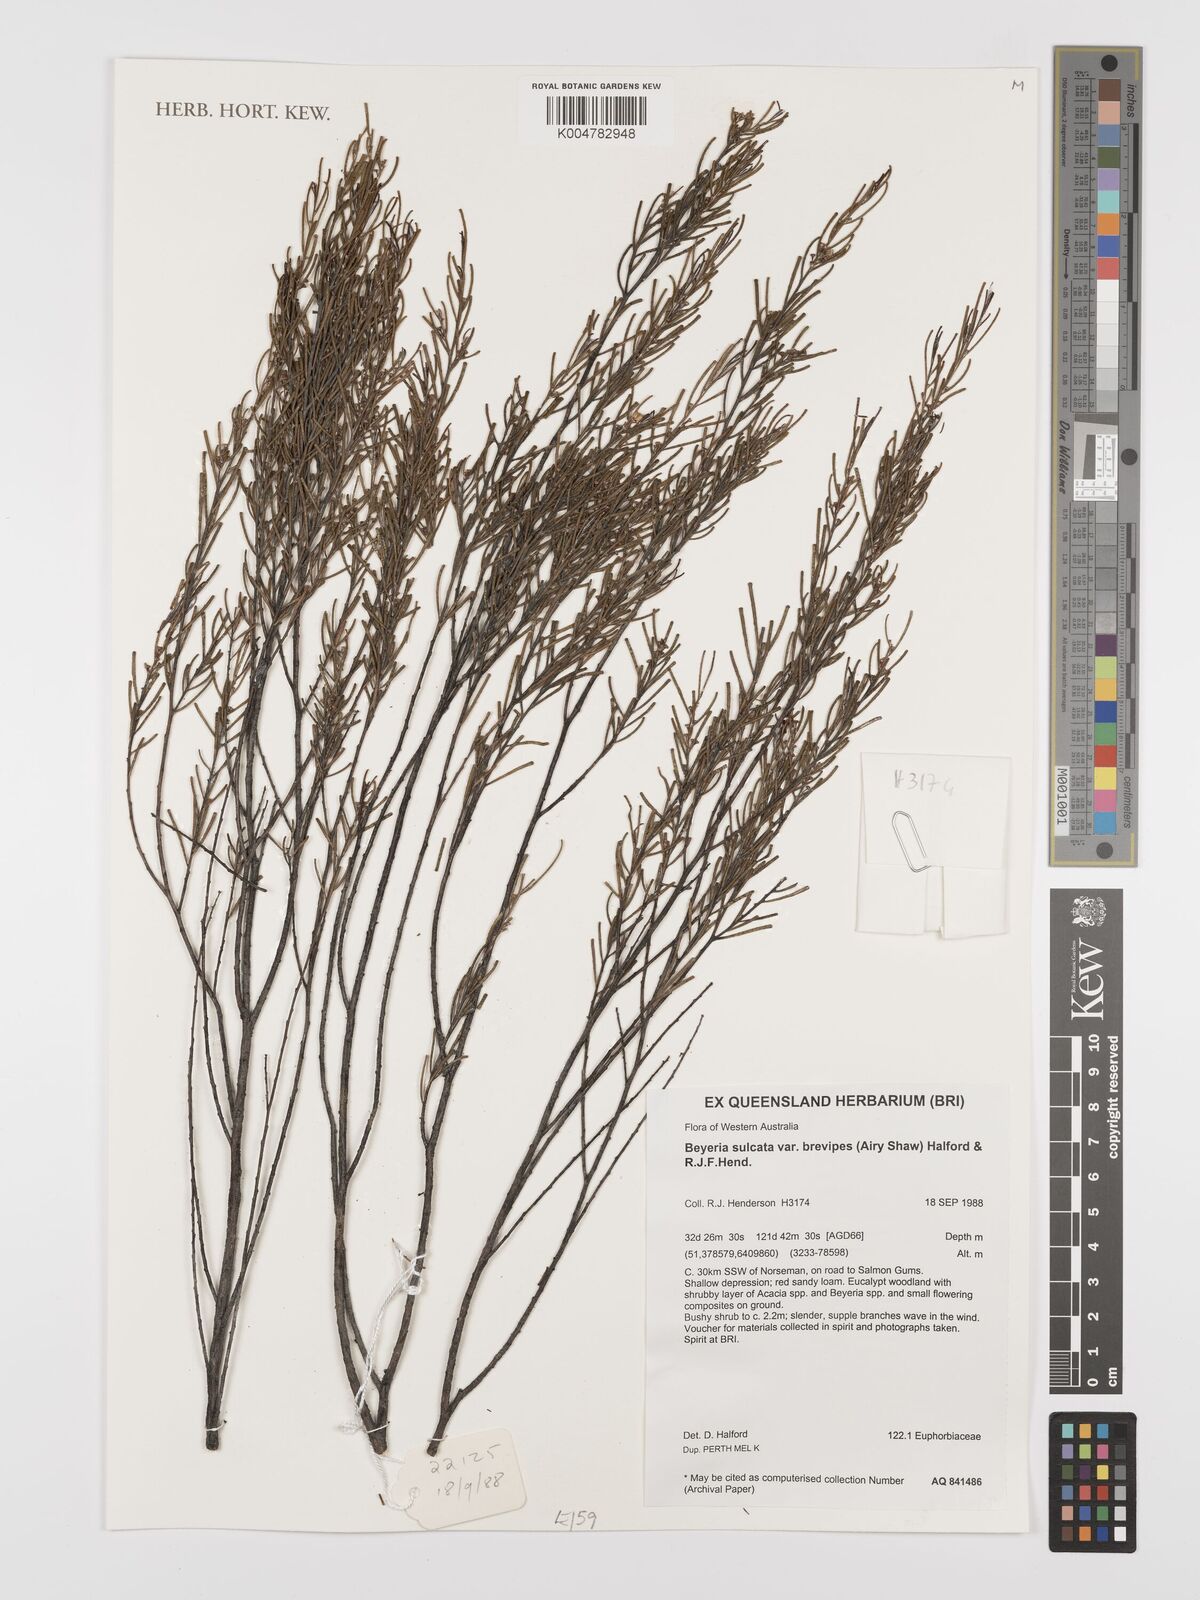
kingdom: Plantae
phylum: Tracheophyta
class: Magnoliopsida
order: Malpighiales
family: Euphorbiaceae
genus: Beyeria
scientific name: Beyeria sulcata
